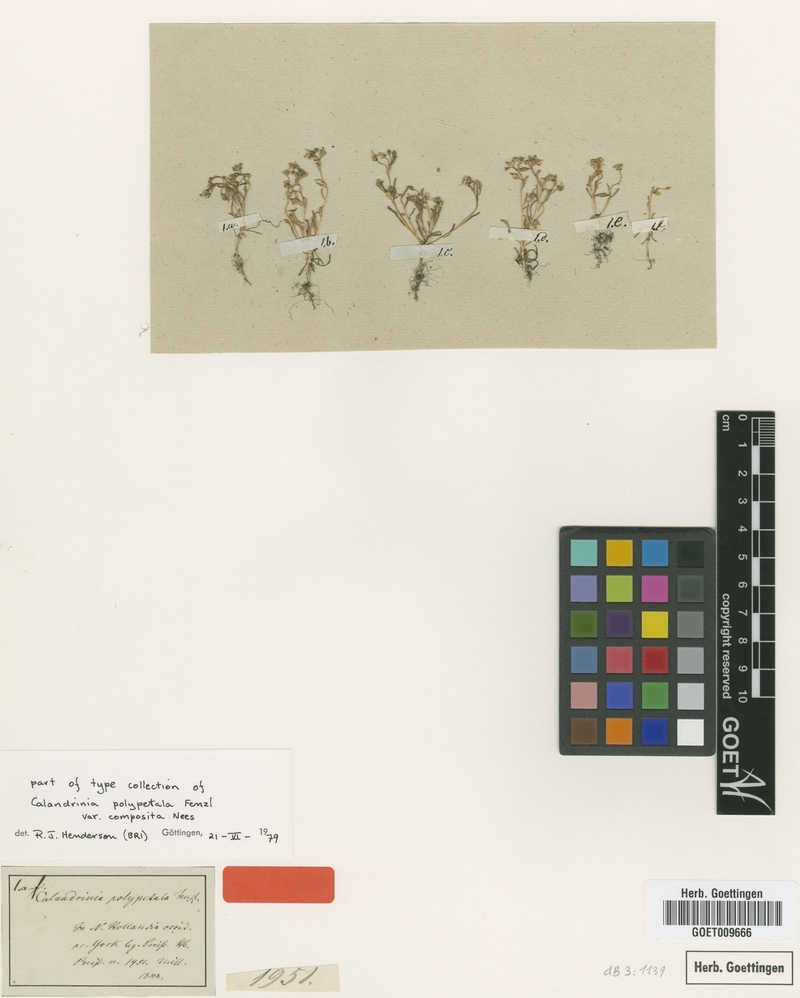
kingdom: Plantae
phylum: Tracheophyta
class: Magnoliopsida
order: Caryophyllales
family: Montiaceae
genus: Rumicastrum
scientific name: Rumicastrum polypetalum
